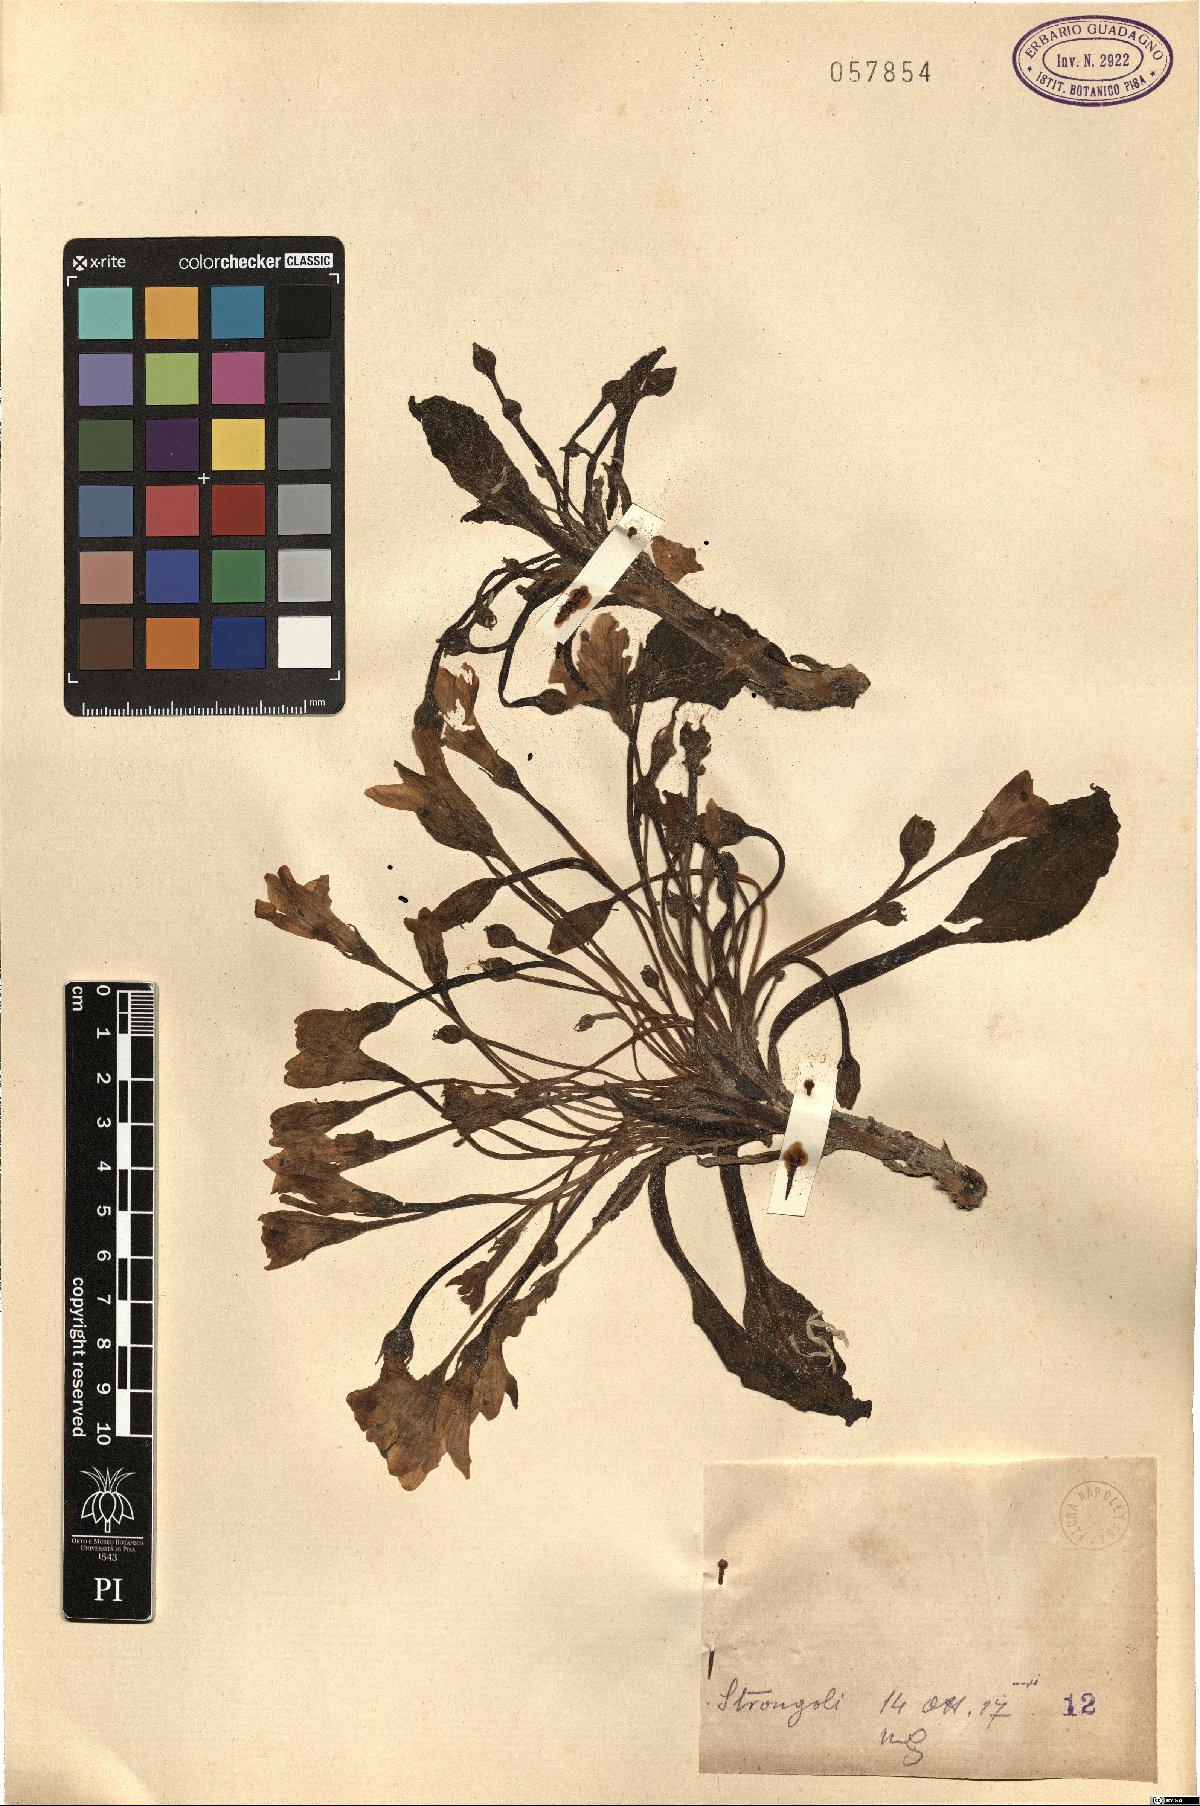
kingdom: Plantae
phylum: Tracheophyta
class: Magnoliopsida
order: Solanales
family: Solanaceae
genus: Mandragora
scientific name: Mandragora
